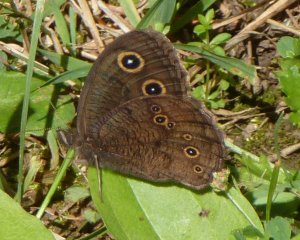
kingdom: Animalia
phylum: Arthropoda
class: Insecta
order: Lepidoptera
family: Nymphalidae
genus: Cercyonis
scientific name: Cercyonis pegala
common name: Common Wood-Nymph
